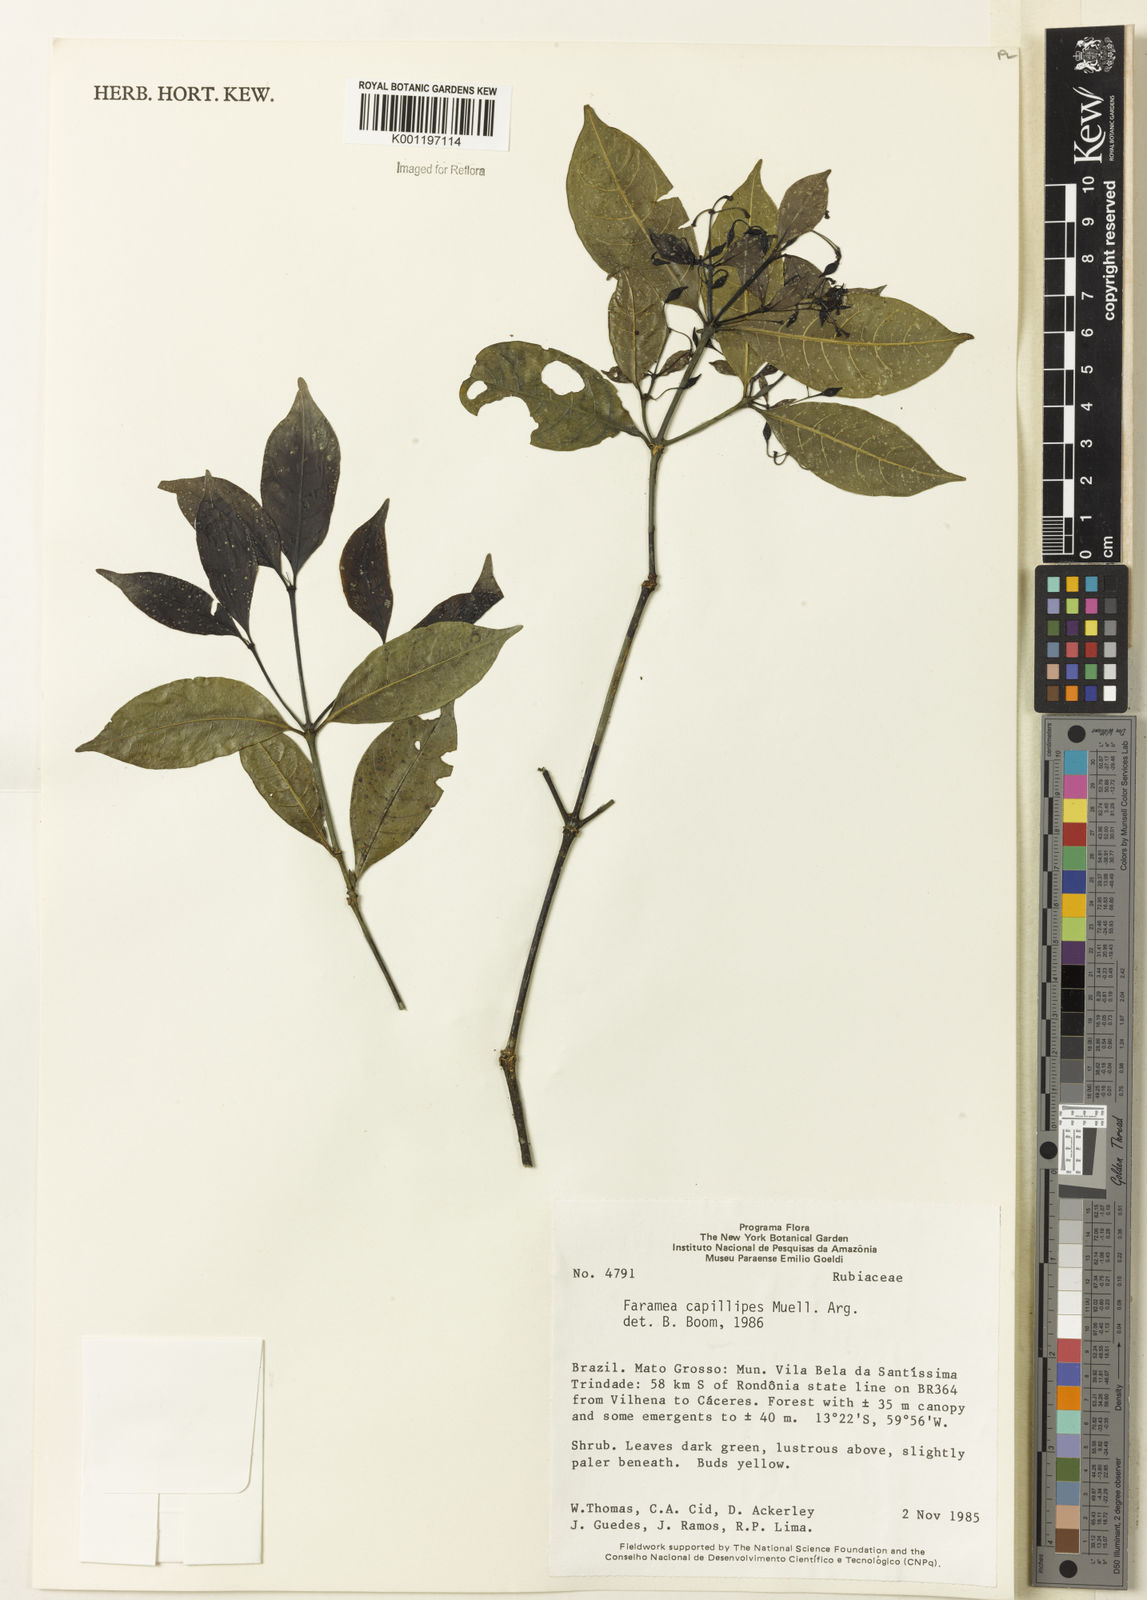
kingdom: Plantae
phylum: Tracheophyta
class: Magnoliopsida
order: Gentianales
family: Rubiaceae
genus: Faramea
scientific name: Faramea
